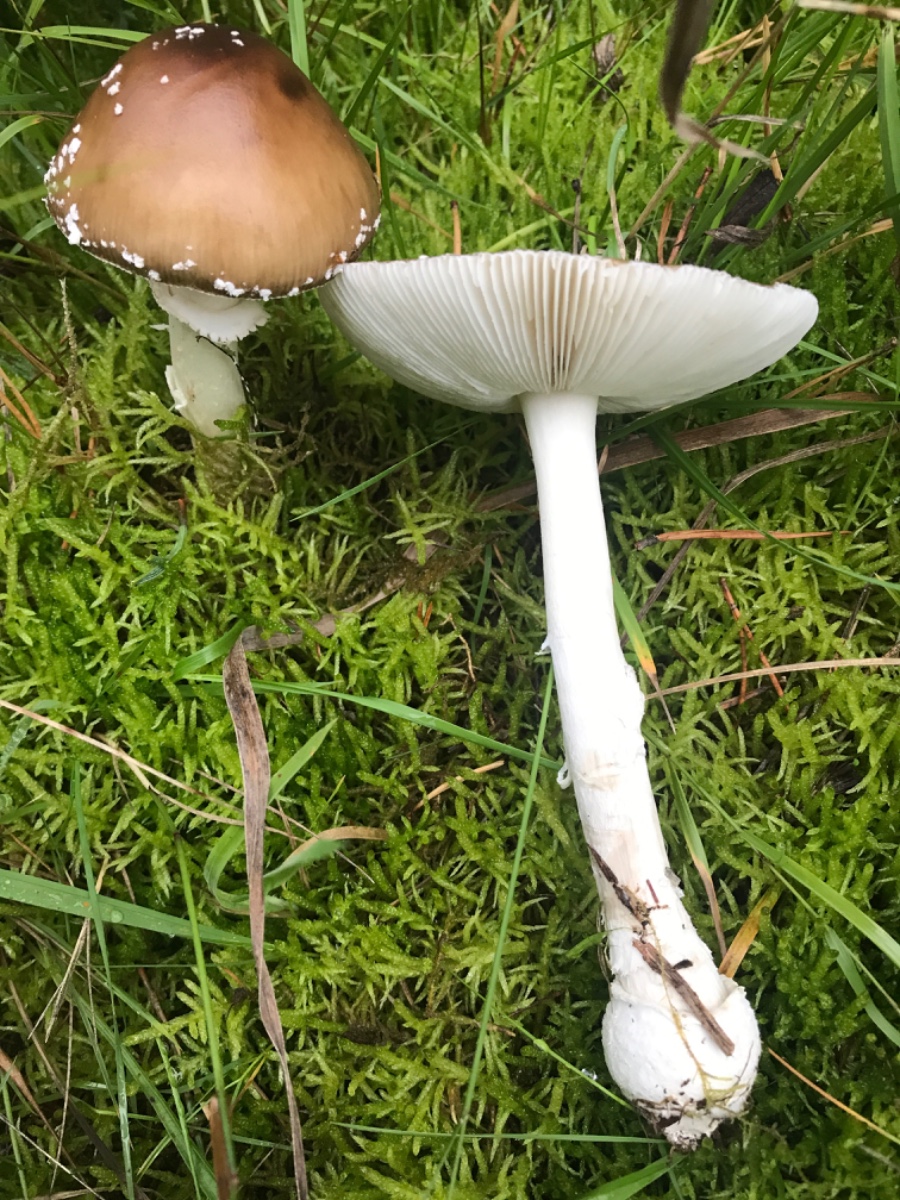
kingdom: Fungi
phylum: Basidiomycota
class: Agaricomycetes
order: Agaricales
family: Amanitaceae
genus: Amanita
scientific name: Amanita pantherina
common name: panter-fluesvamp
